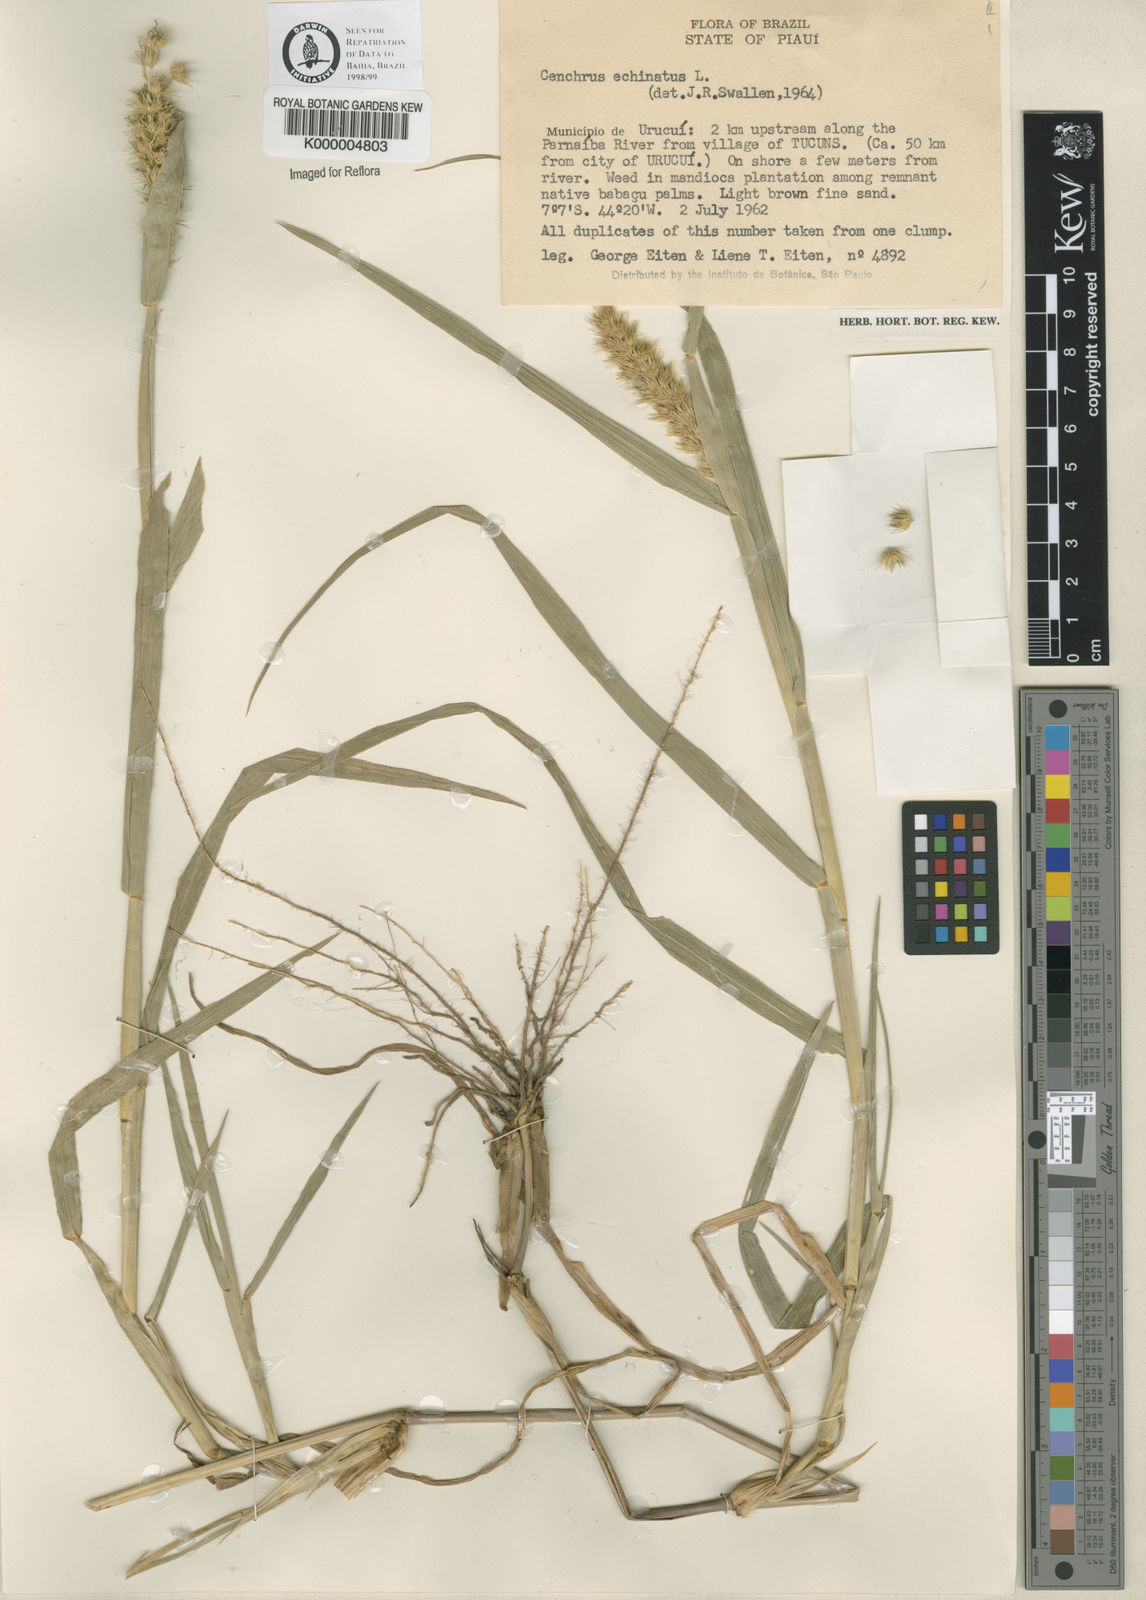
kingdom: Plantae
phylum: Tracheophyta
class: Liliopsida
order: Poales
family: Poaceae
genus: Cenchrus
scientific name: Cenchrus echinatus
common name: Southern sandbur
